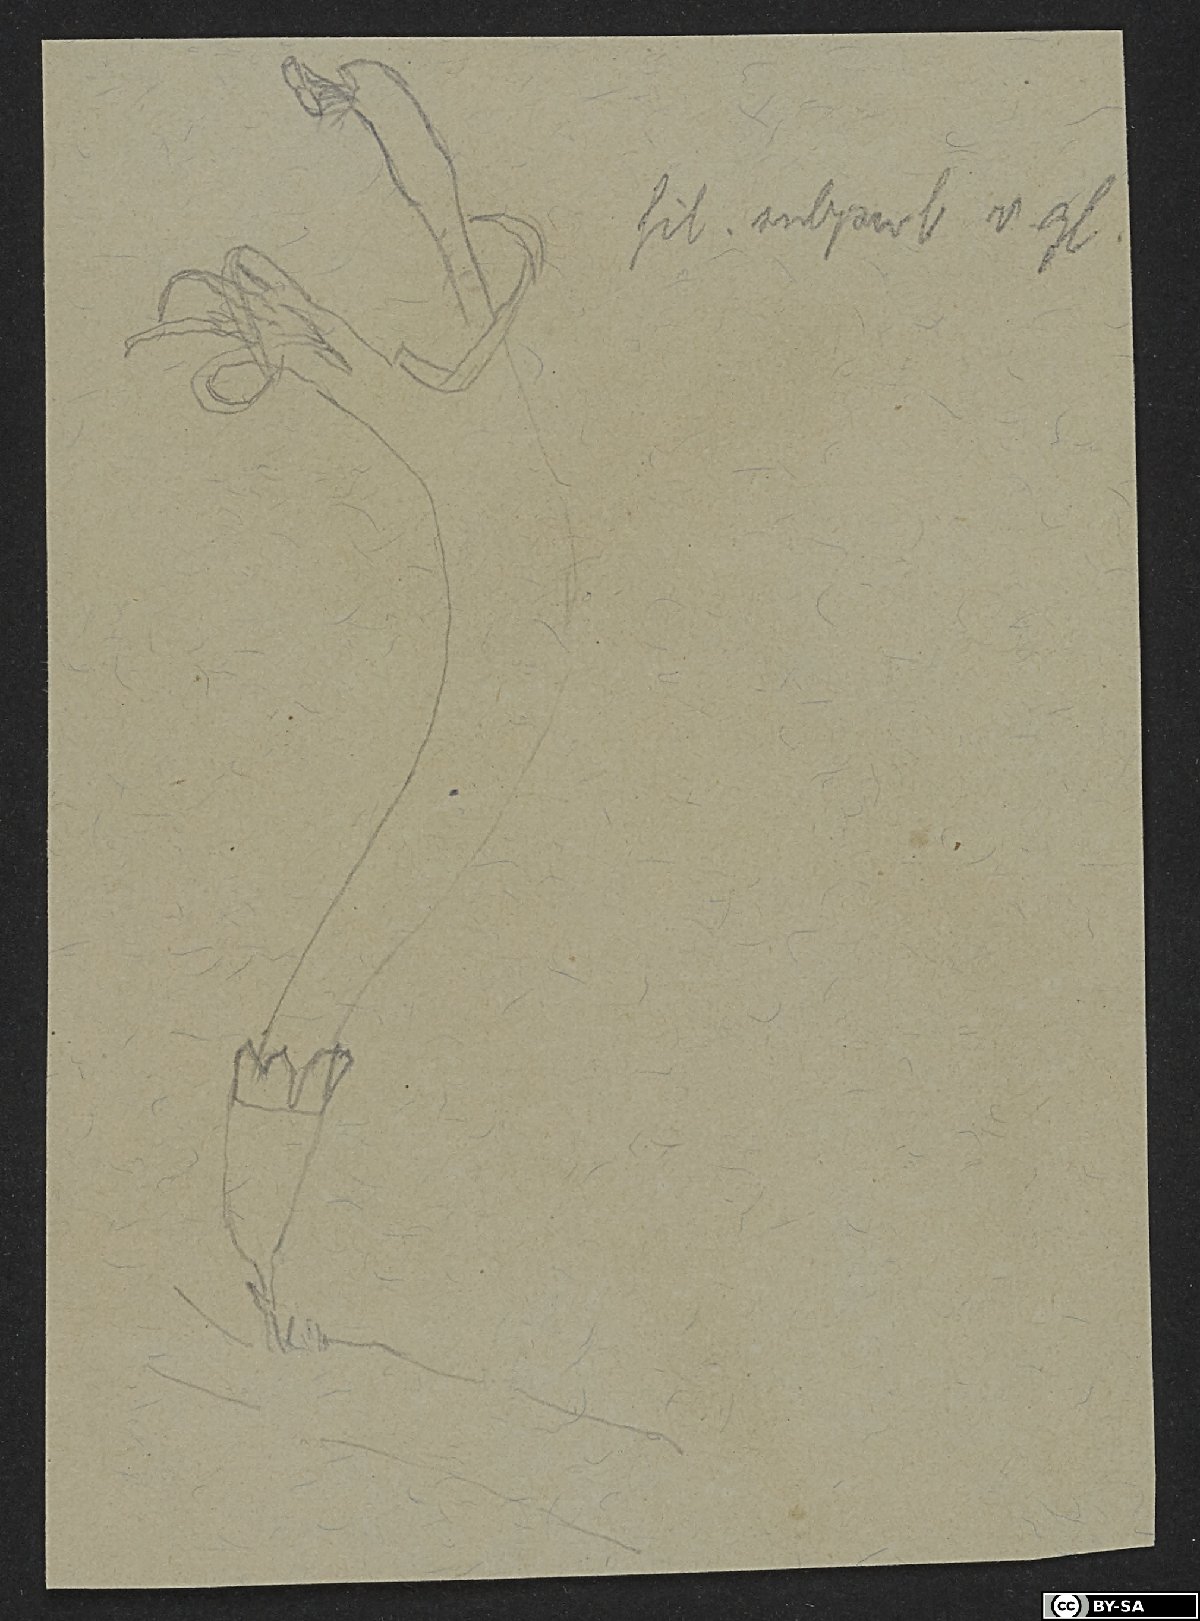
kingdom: Plantae
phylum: Tracheophyta
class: Magnoliopsida
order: Asterales
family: Campanulaceae
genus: Cyanea
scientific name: Cyanea longiflora
